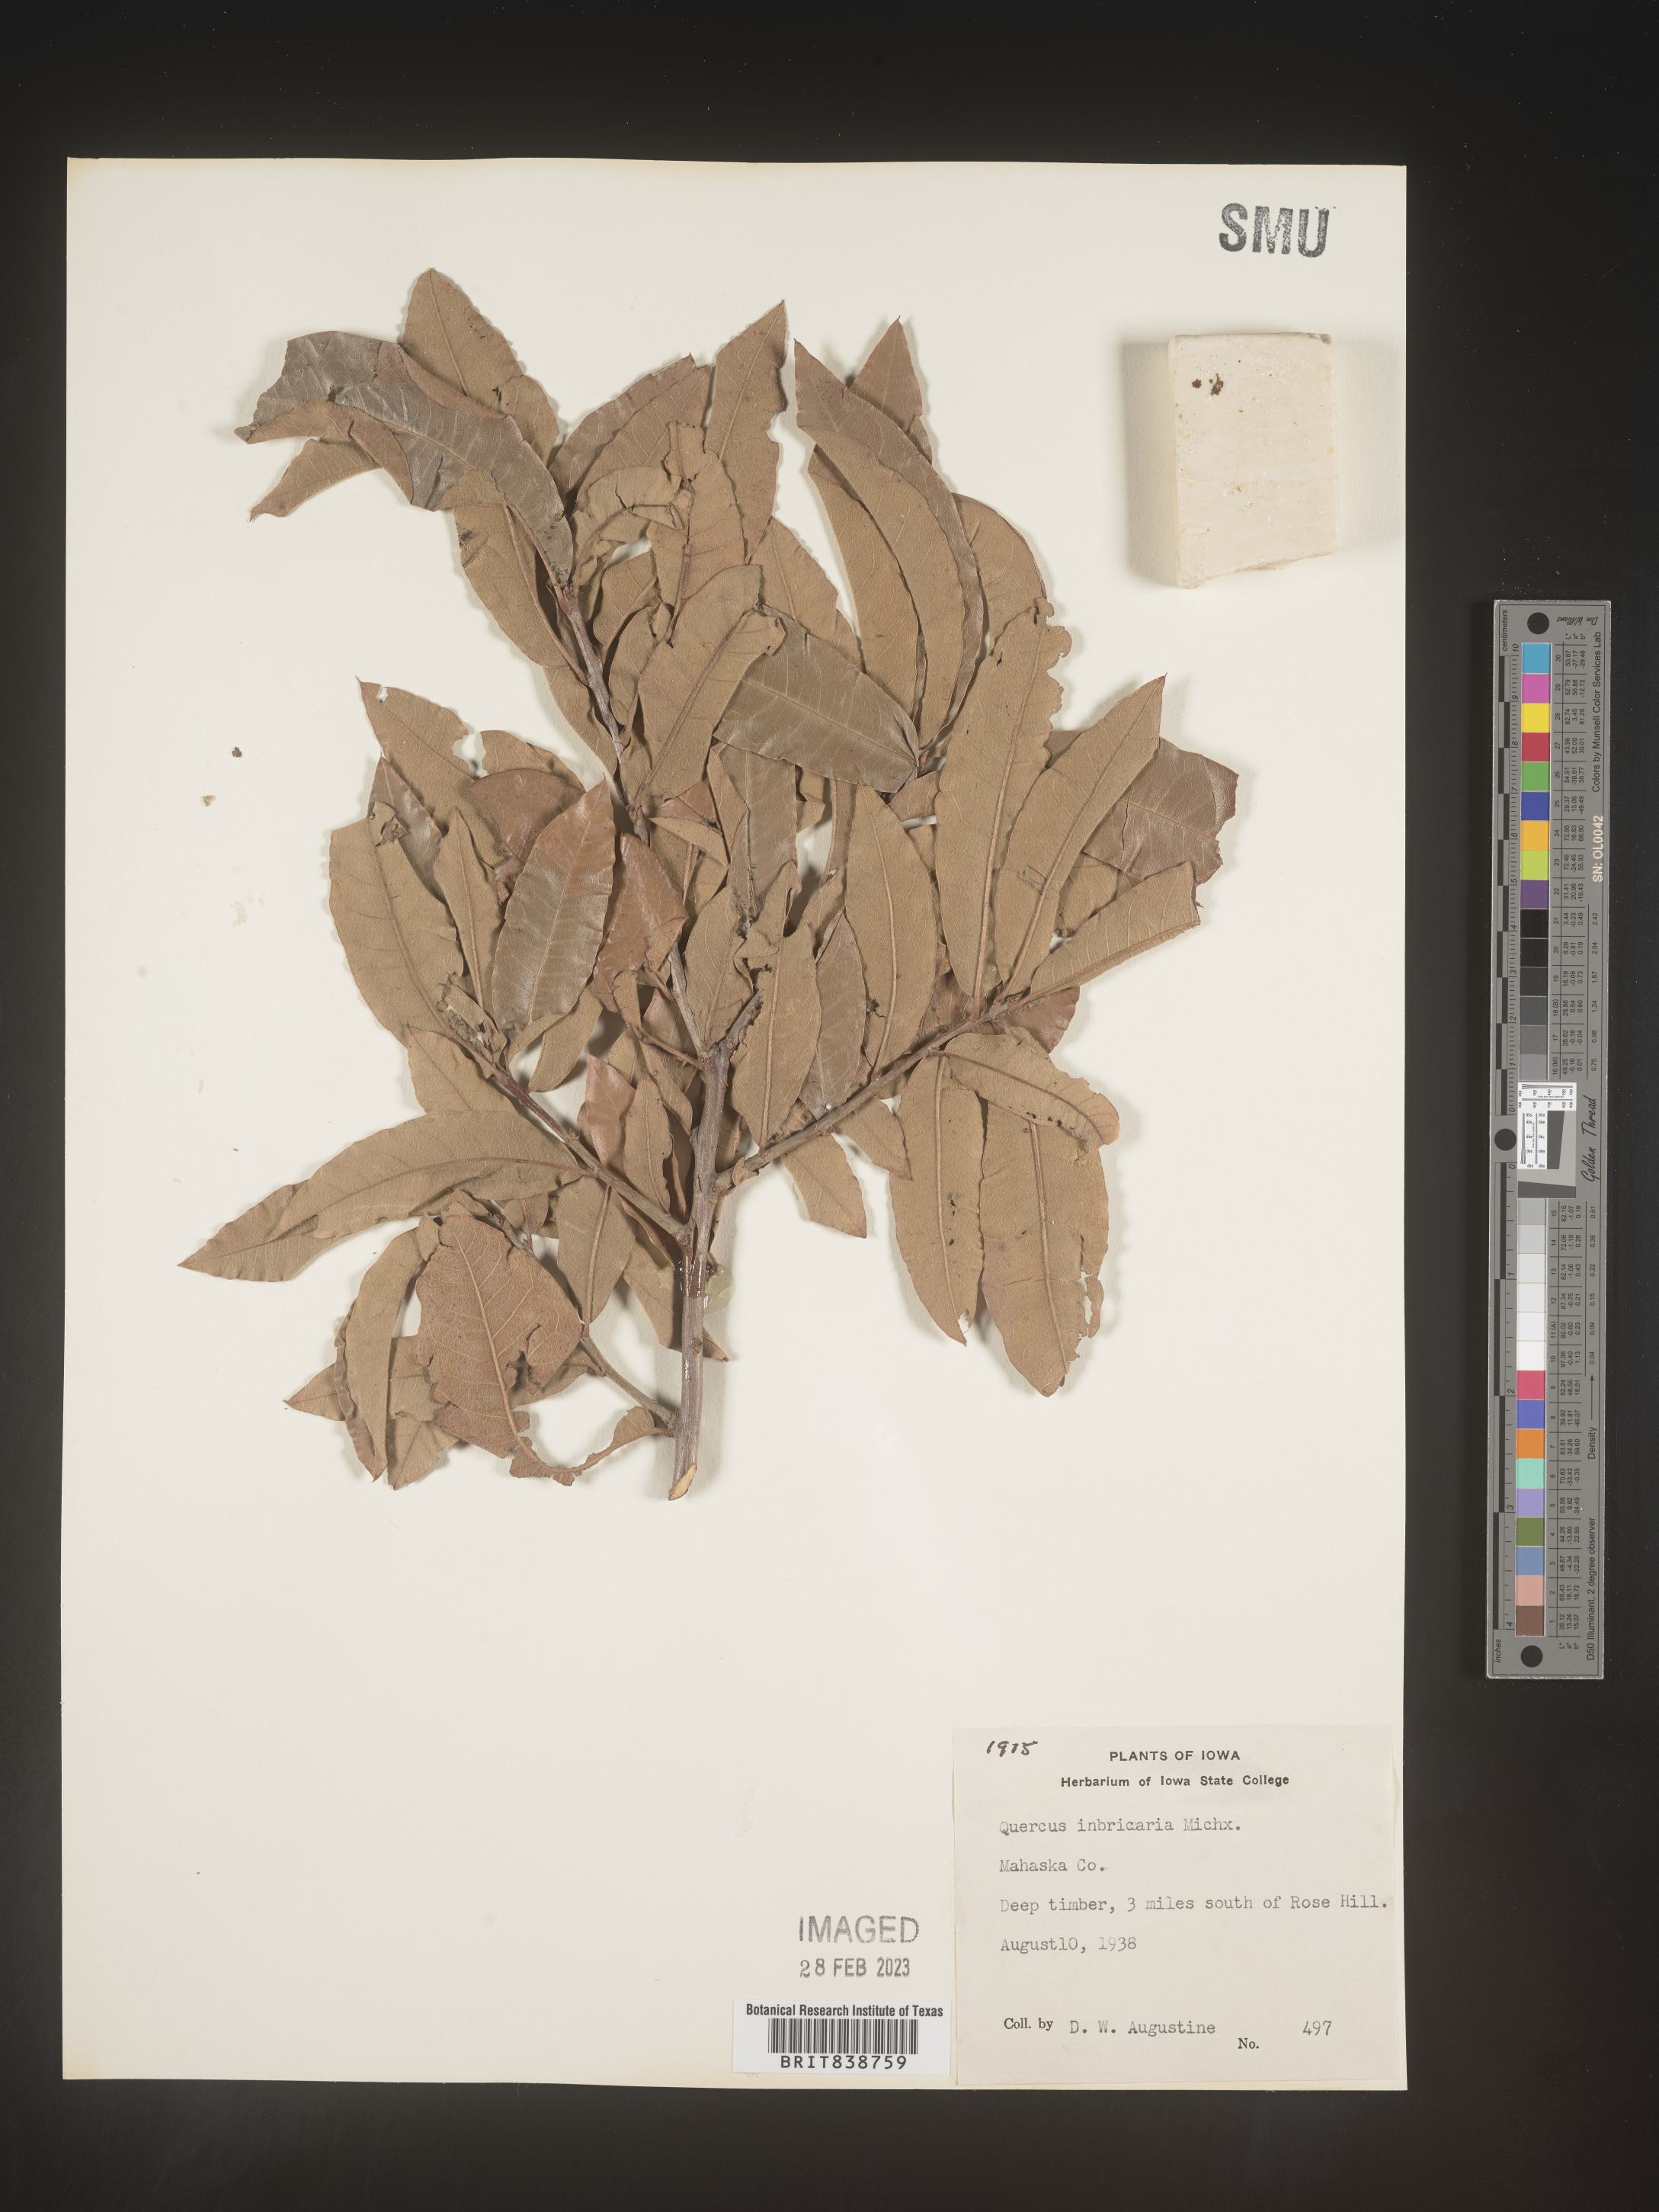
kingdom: Plantae
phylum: Tracheophyta
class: Magnoliopsida
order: Fagales
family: Fagaceae
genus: Quercus
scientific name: Quercus imbricaria
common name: Shingle oak
